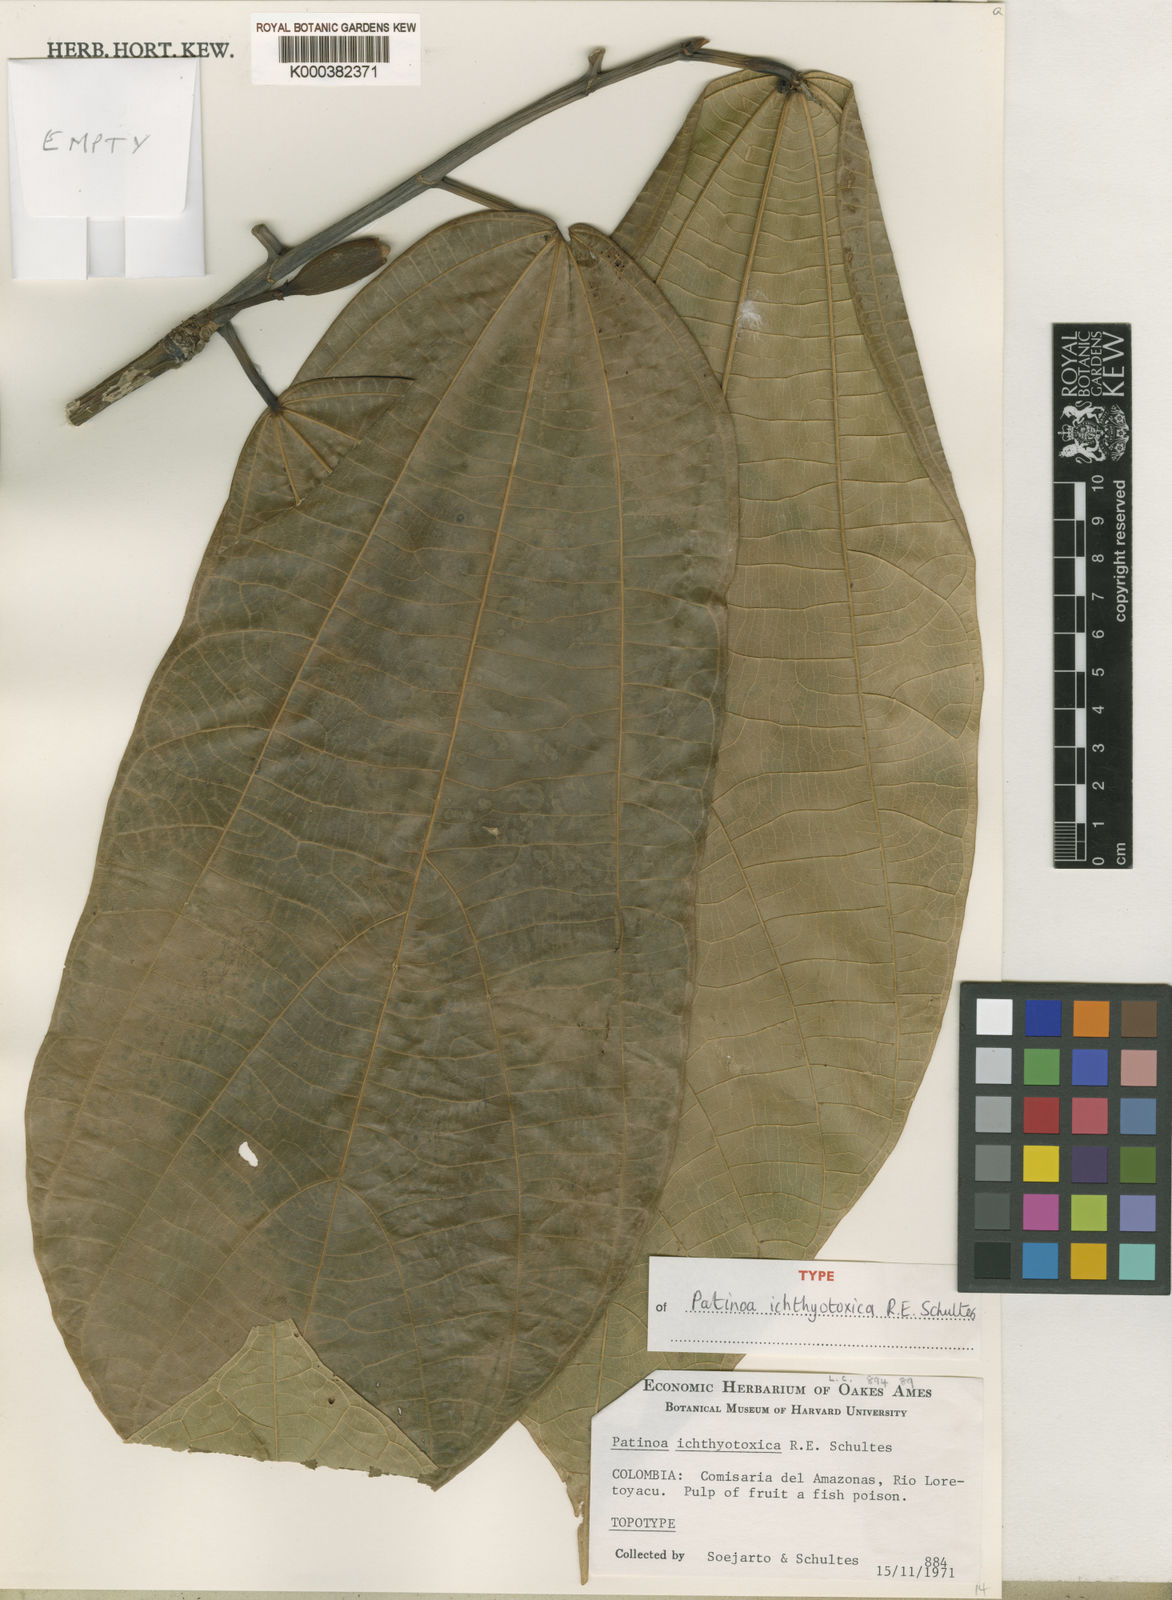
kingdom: Plantae
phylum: Tracheophyta
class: Magnoliopsida
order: Malvales
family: Malvaceae
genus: Patinoa
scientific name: Patinoa ichthyotoxica
